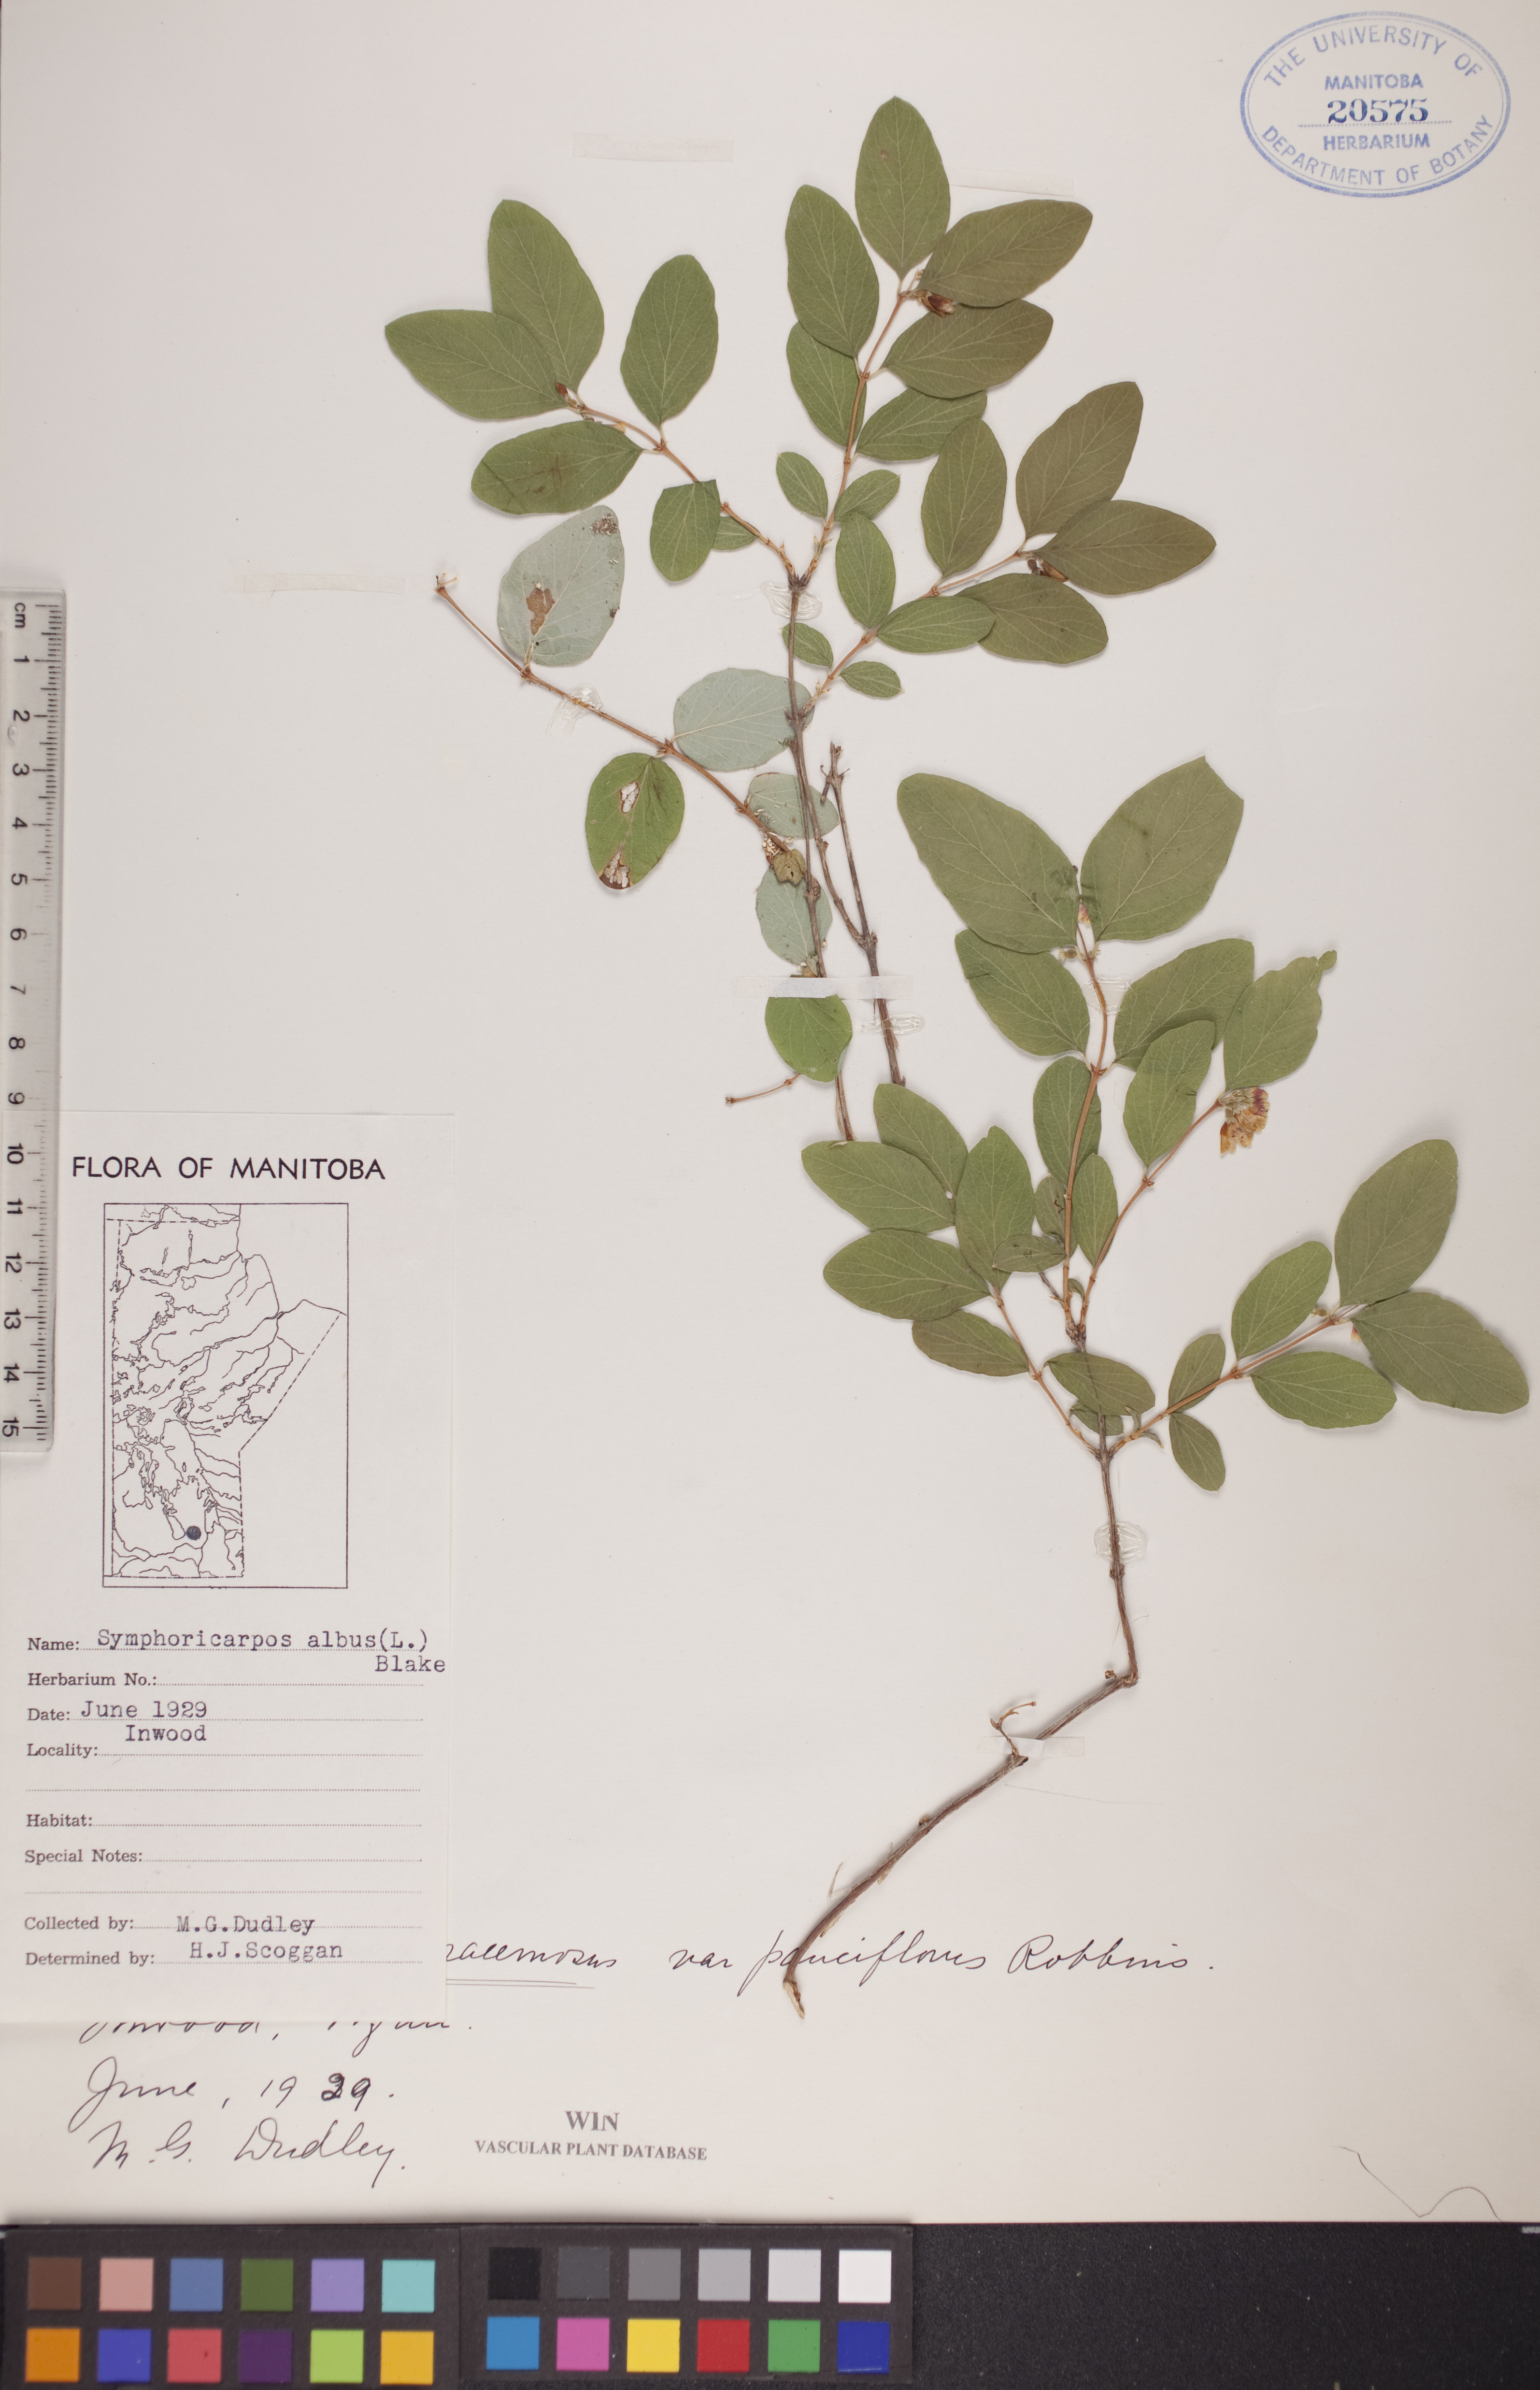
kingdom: Plantae
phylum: Tracheophyta
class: Magnoliopsida
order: Dipsacales
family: Caprifoliaceae
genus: Symphoricarpos
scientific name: Symphoricarpos albus
